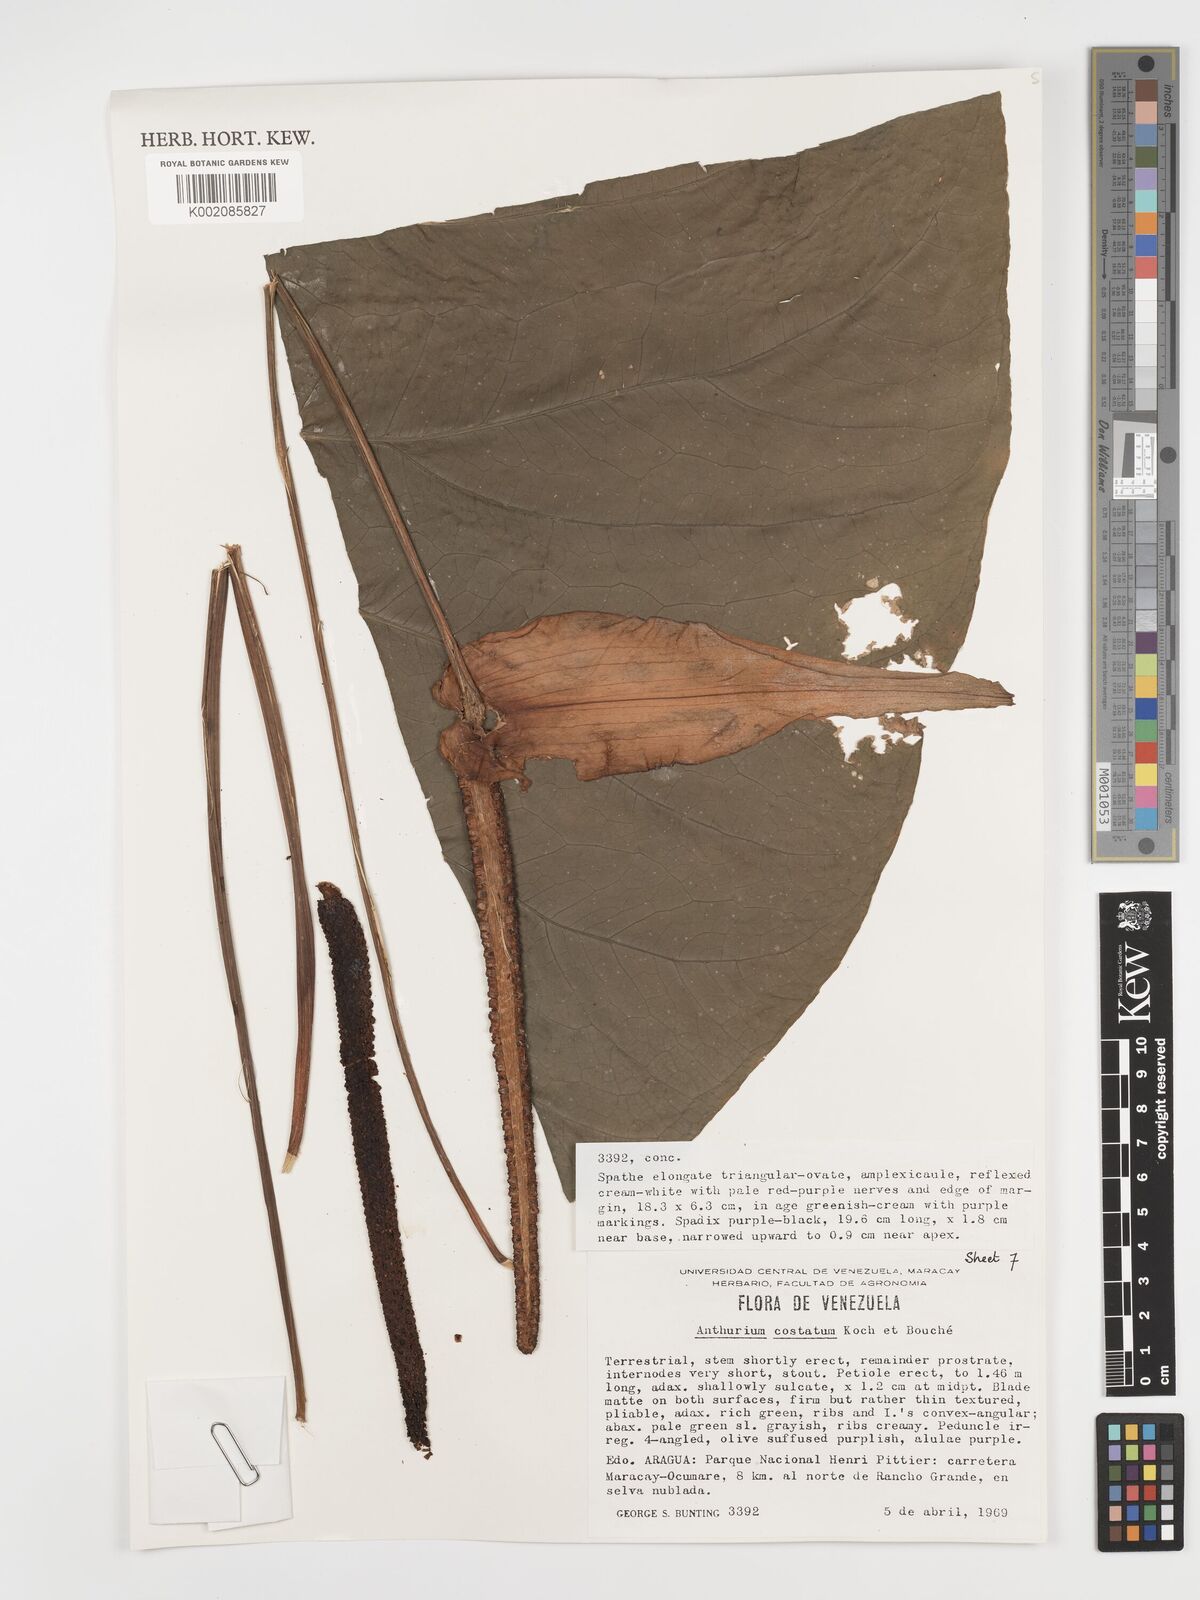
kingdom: Plantae
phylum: Tracheophyta
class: Liliopsida
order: Alismatales
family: Araceae
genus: Anthurium
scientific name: Anthurium macrophyllum
